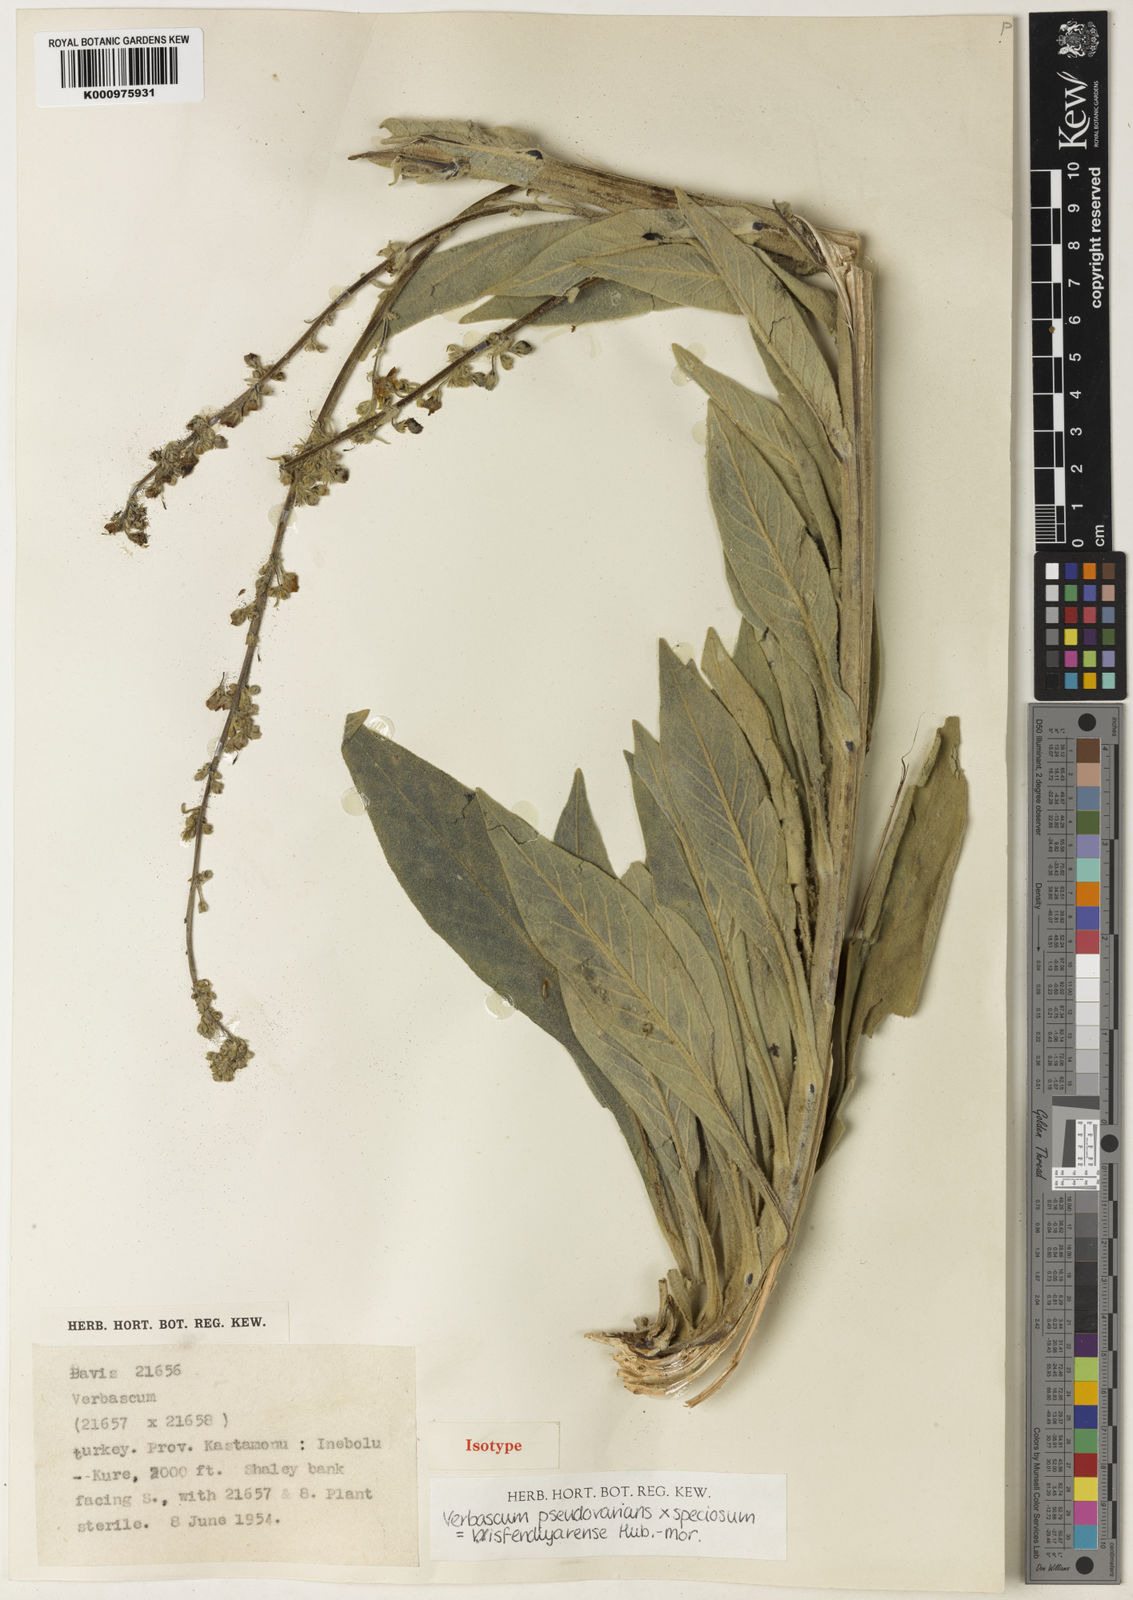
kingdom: Plantae
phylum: Tracheophyta
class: Magnoliopsida
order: Lamiales
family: Scrophulariaceae
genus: Verbascum
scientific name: Verbascum isfendiyarense
